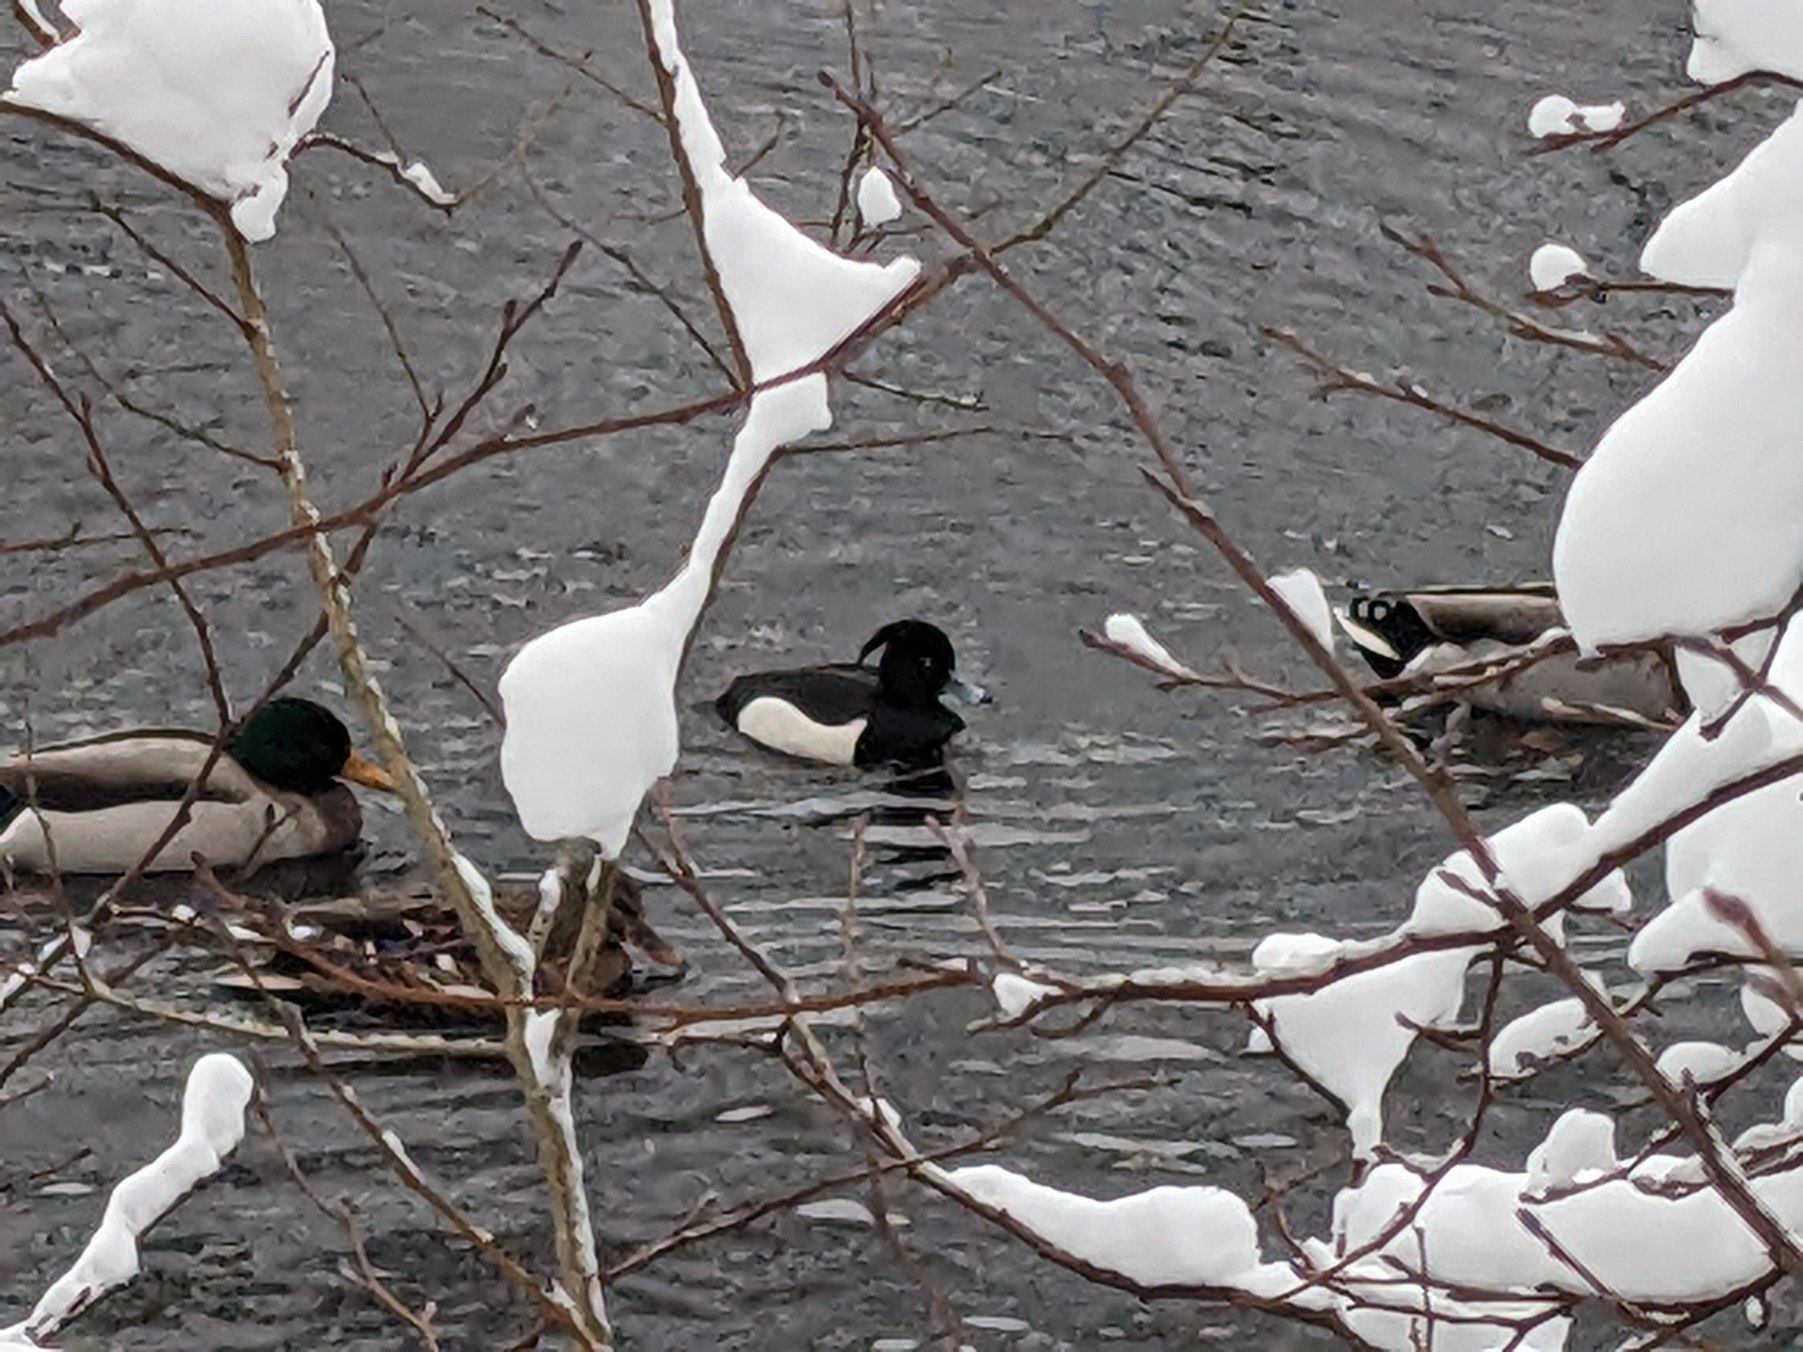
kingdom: Animalia
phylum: Chordata
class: Aves
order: Anseriformes
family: Anatidae
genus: Aythya
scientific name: Aythya fuligula
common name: Troldand
